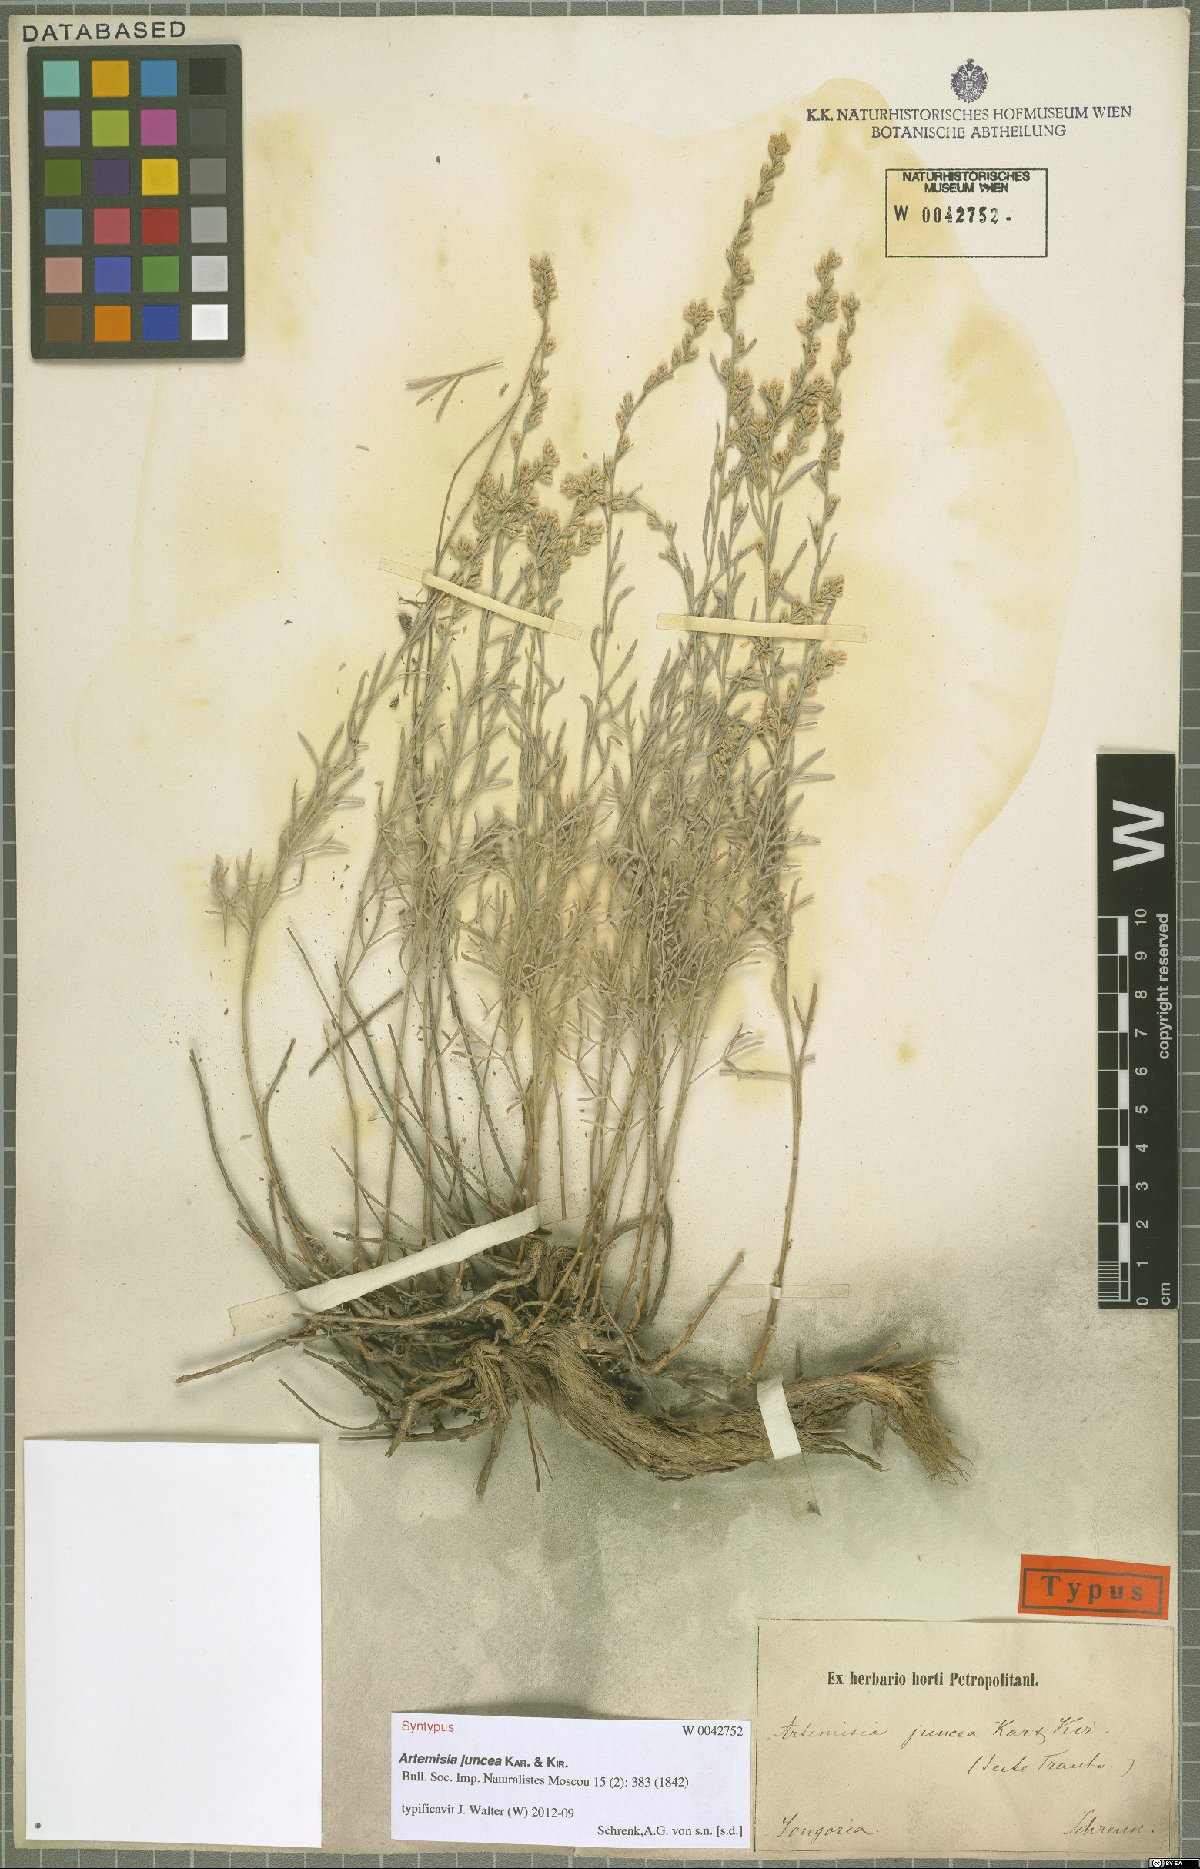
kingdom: Plantae
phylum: Tracheophyta
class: Magnoliopsida
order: Asterales
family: Asteraceae
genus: Artemisia
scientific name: Artemisia juncea
